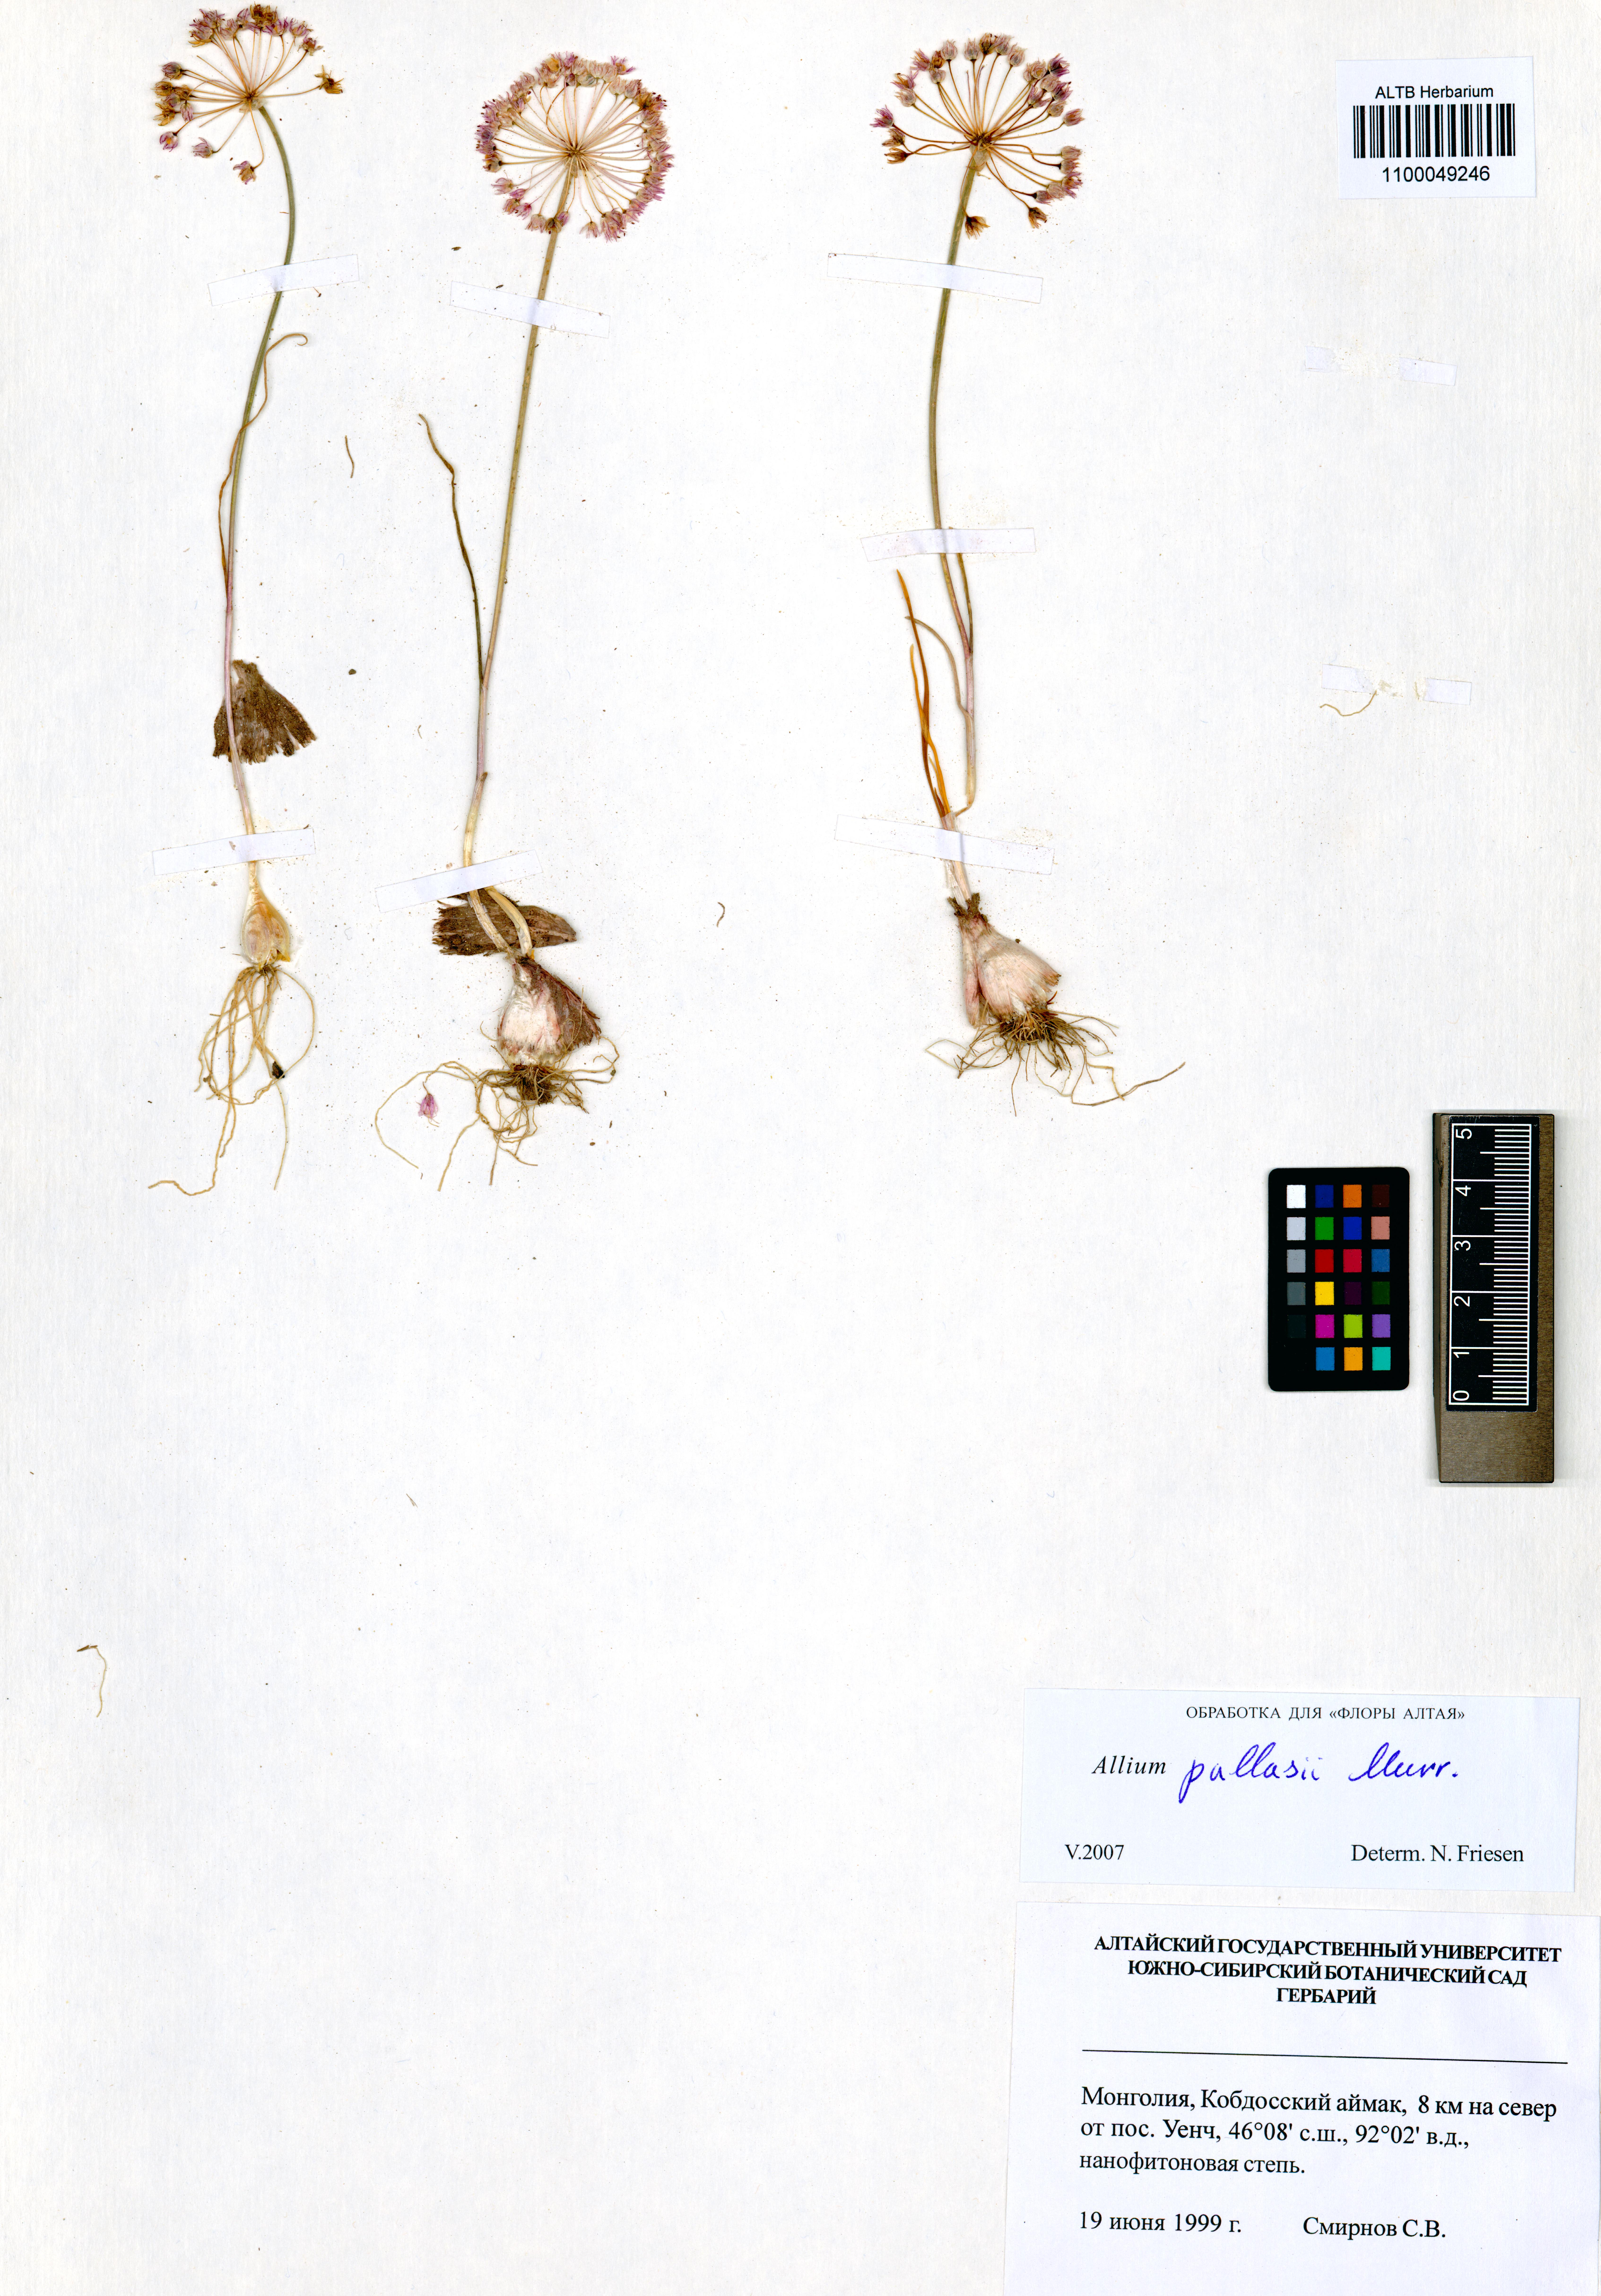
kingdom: Plantae
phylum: Tracheophyta
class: Liliopsida
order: Asparagales
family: Amaryllidaceae
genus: Allium
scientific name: Allium pallasii
